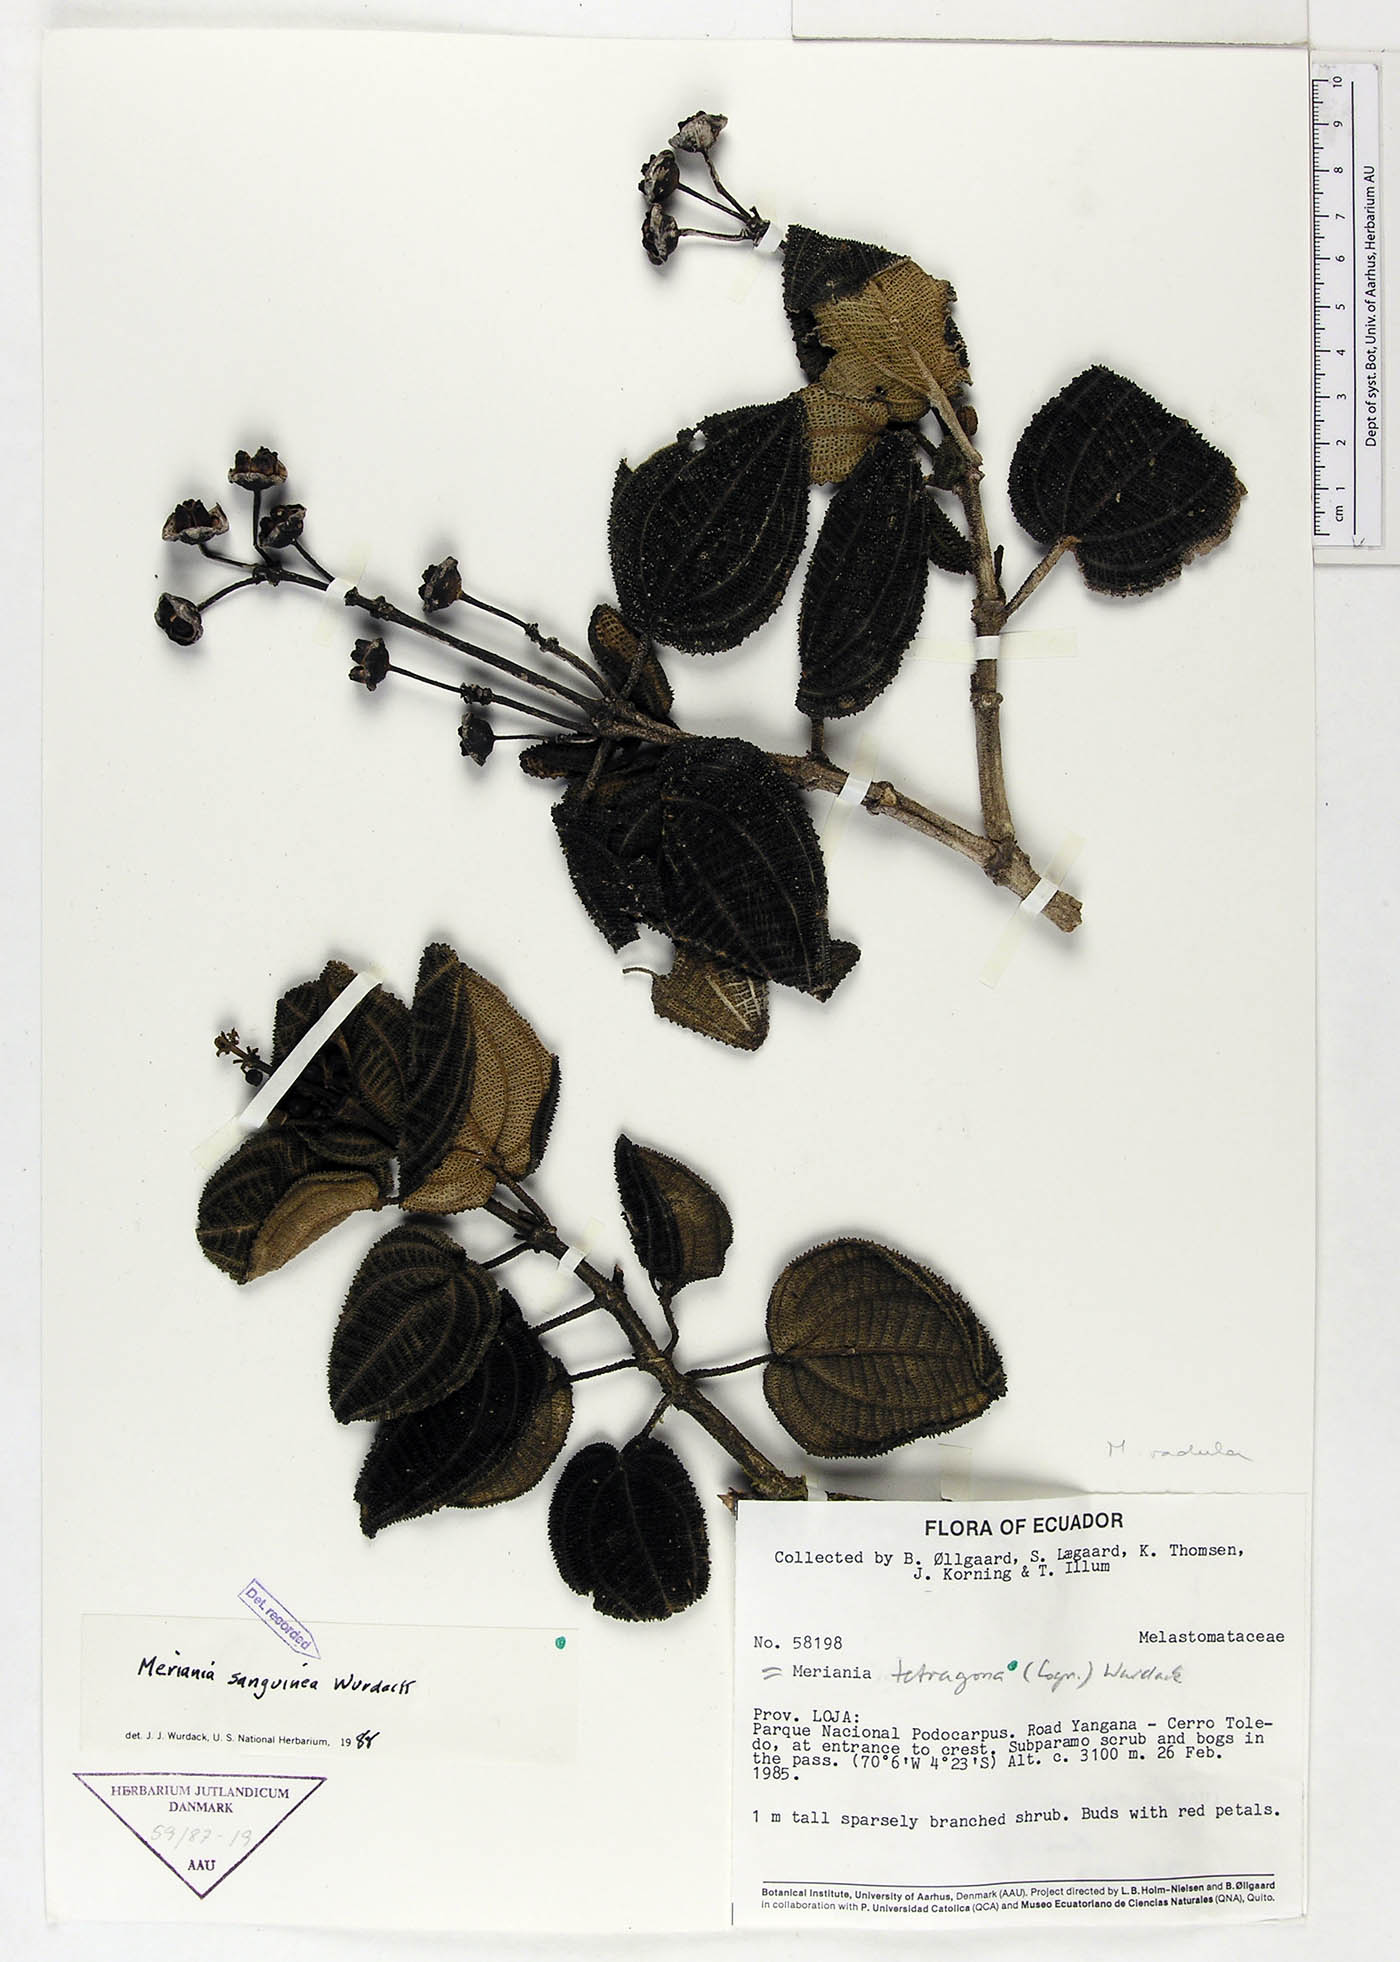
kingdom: Plantae
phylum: Tracheophyta
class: Magnoliopsida
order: Myrtales
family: Melastomataceae
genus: Meriania
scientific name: Meriania sanguinea
